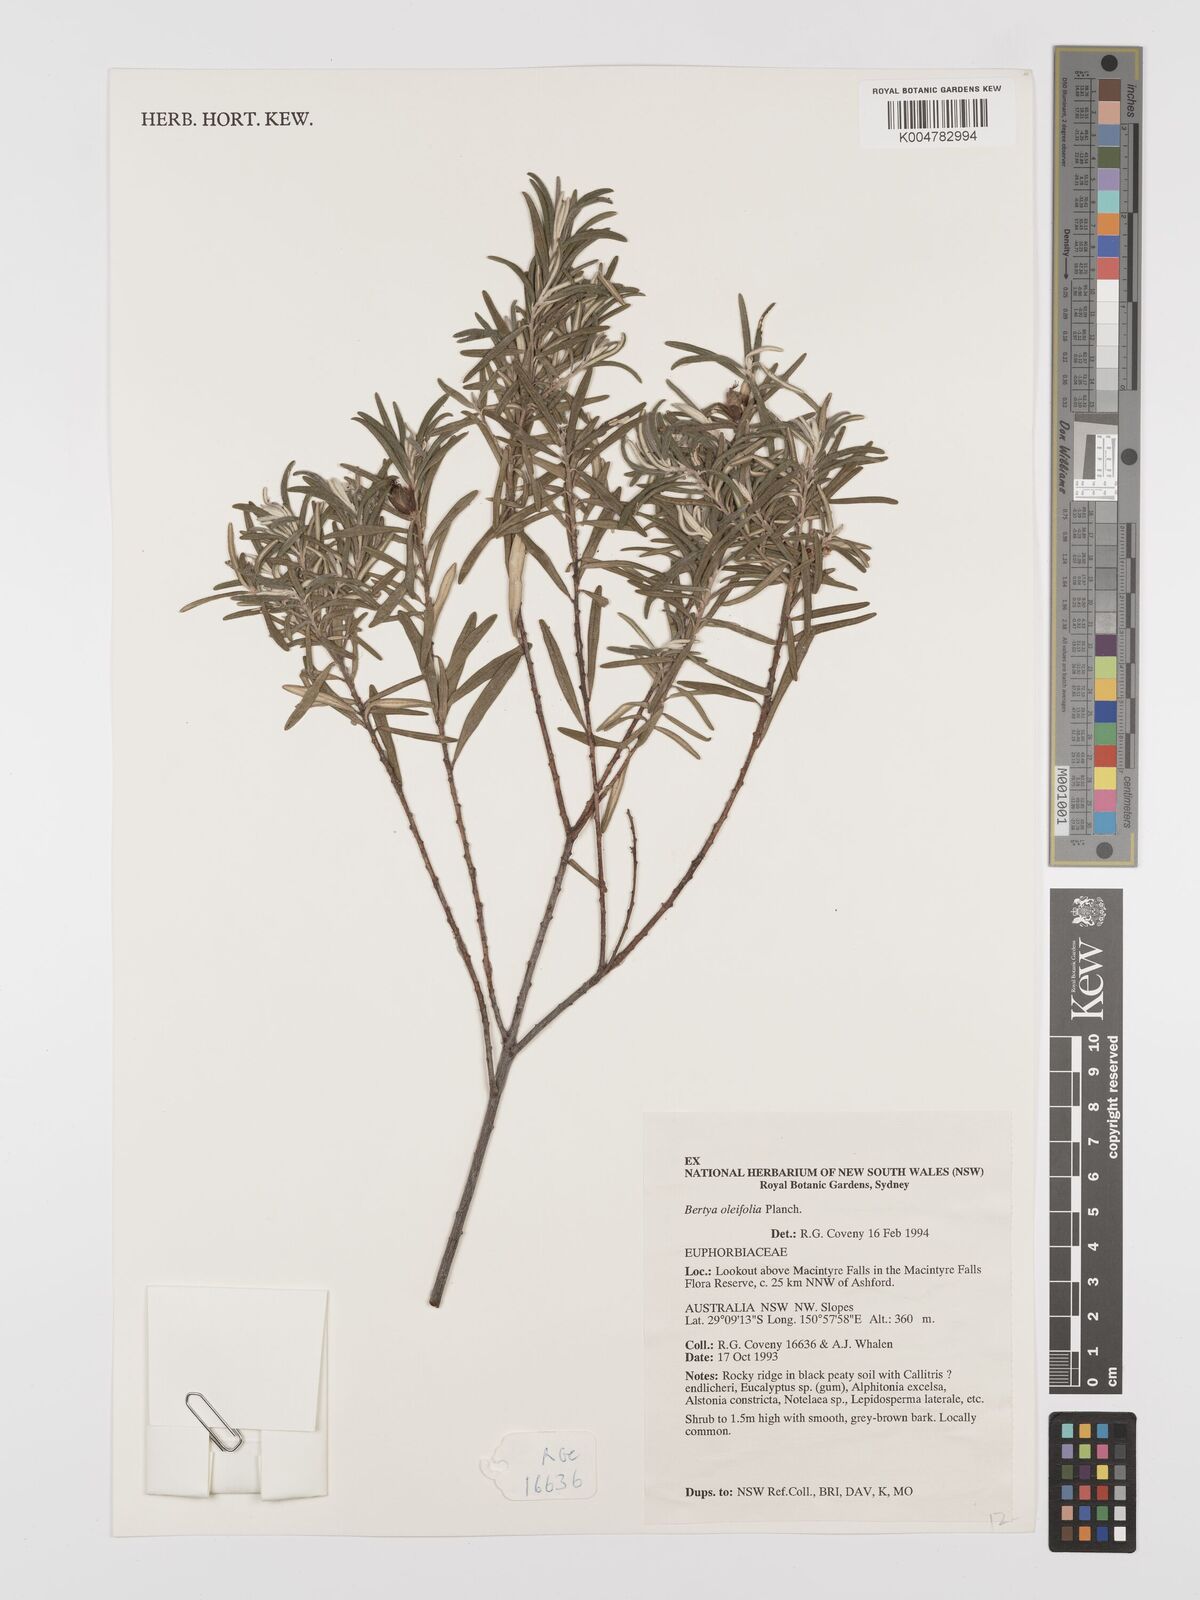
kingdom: Plantae
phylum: Tracheophyta
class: Magnoliopsida
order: Malpighiales
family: Euphorbiaceae
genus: Bertya
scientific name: Bertya oleifolia
